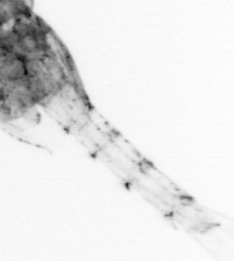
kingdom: Animalia
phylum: Arthropoda
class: Copepoda
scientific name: Copepoda
